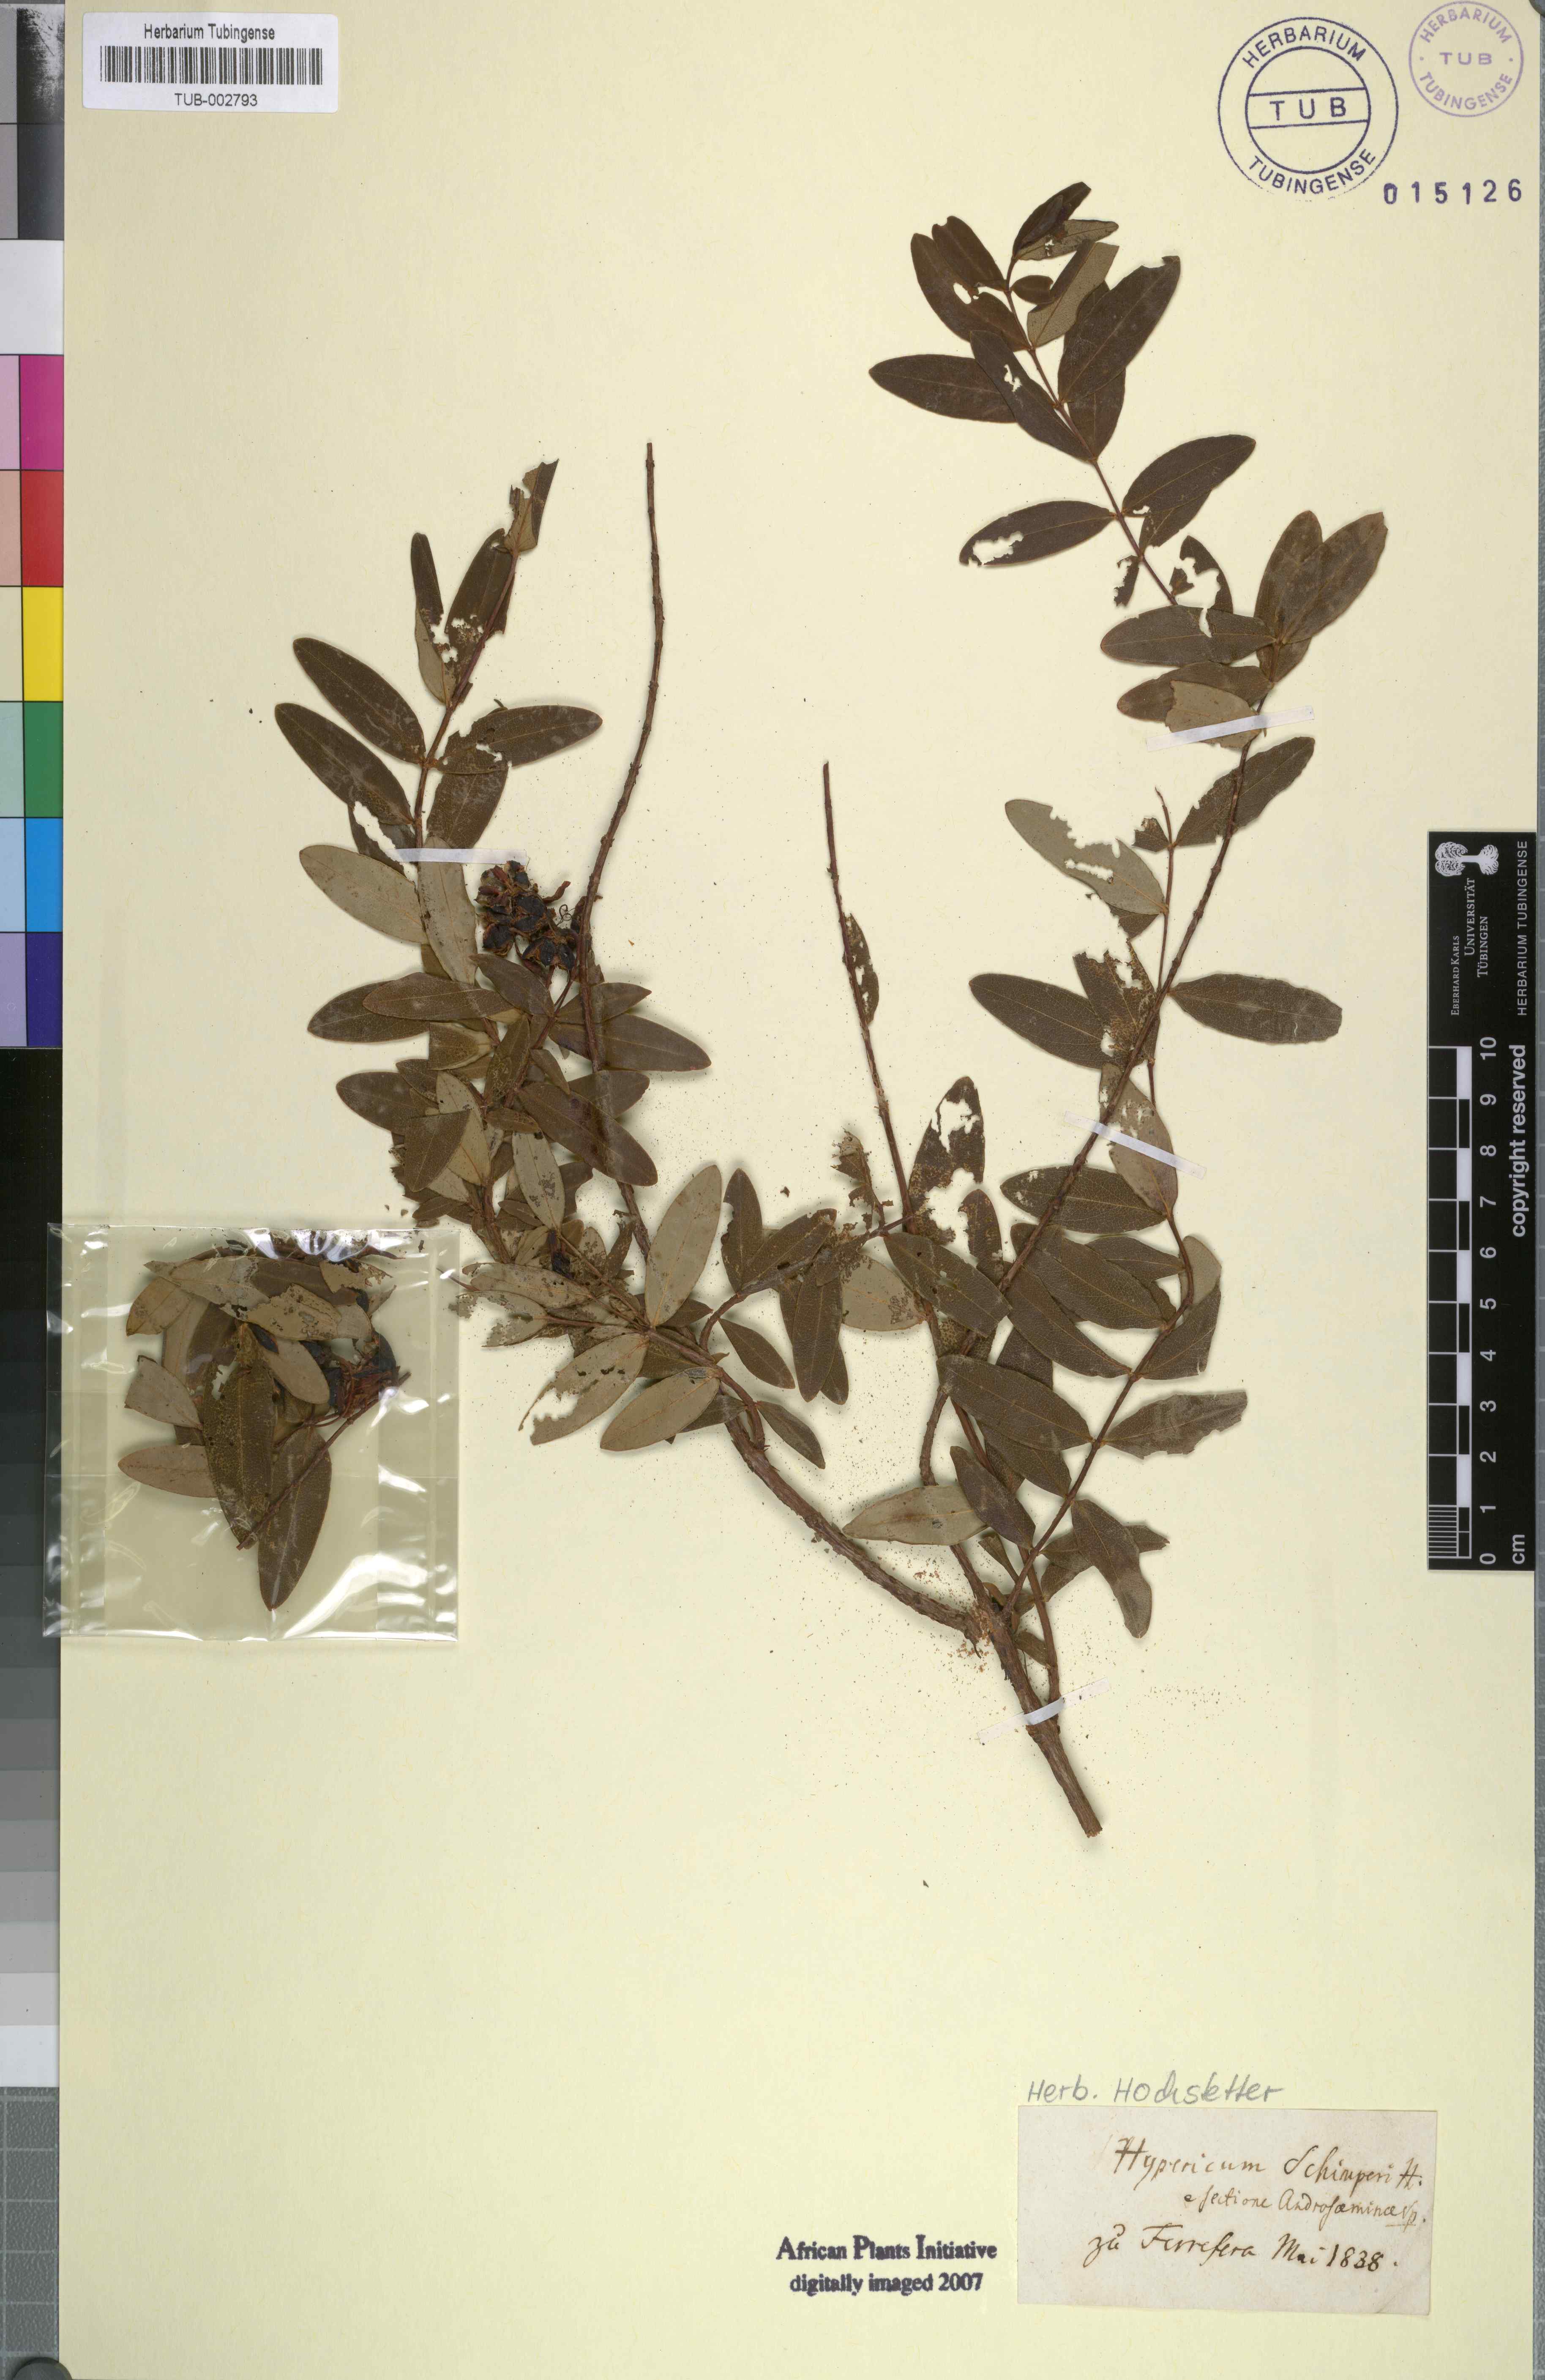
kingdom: Plantae
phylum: Tracheophyta
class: Magnoliopsida
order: Malpighiales
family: Hypericaceae
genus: Hypericum
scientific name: Hypericum roeperianum
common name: Large-leaved curry-bush
